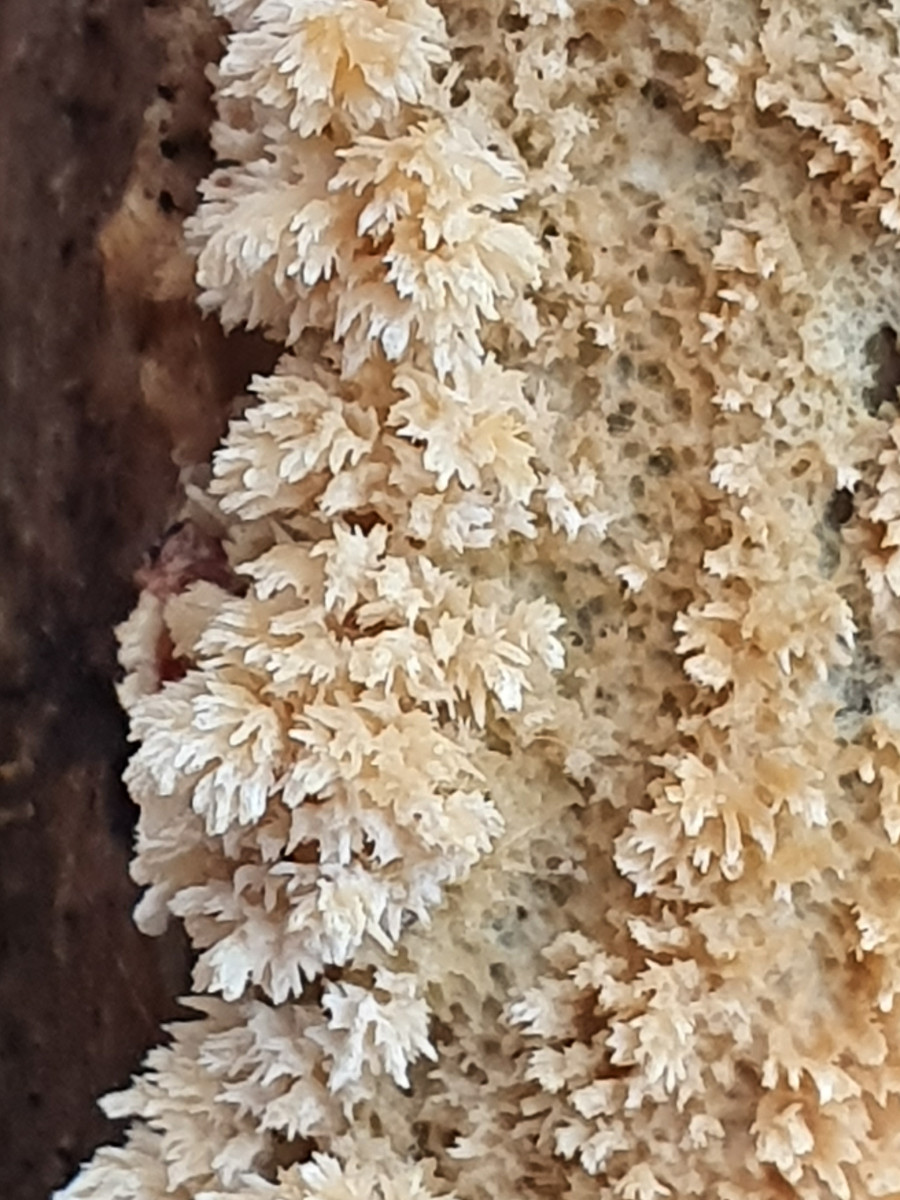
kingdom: Fungi
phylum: Basidiomycota
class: Agaricomycetes
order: Corticiales
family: Corticiaceae
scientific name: Corticiaceae
